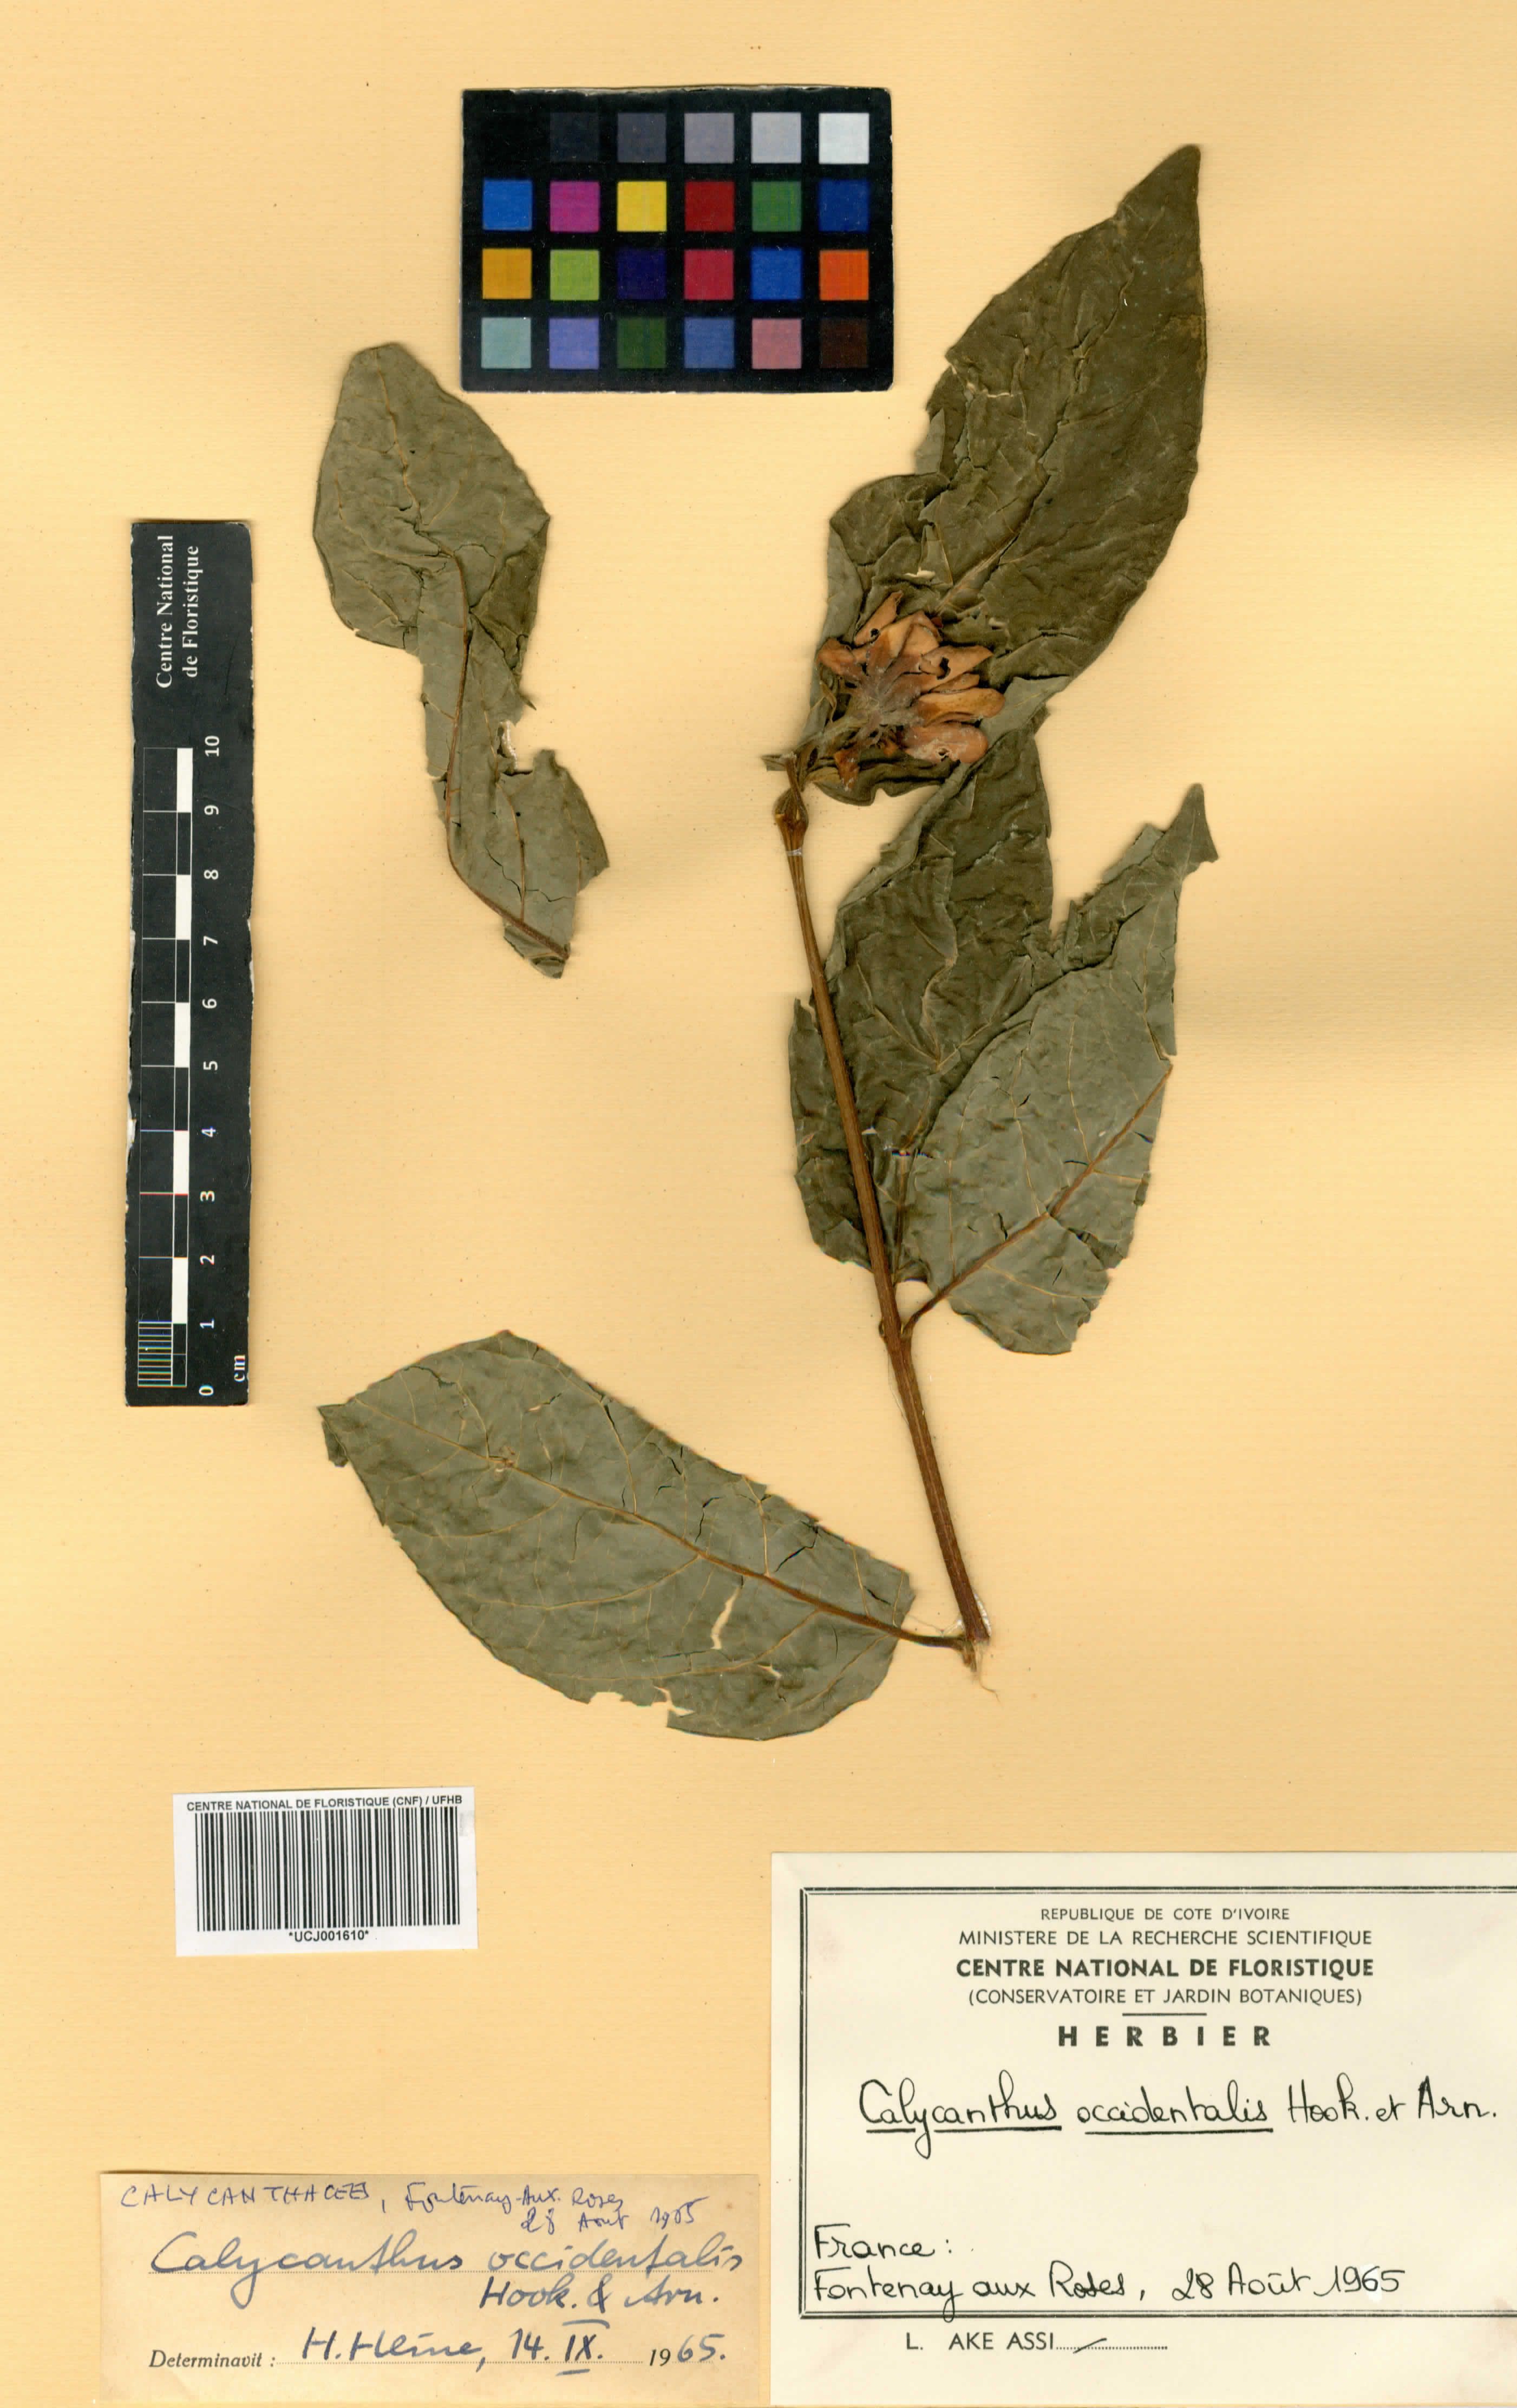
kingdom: Plantae
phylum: Tracheophyta
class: Magnoliopsida
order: Laurales
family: Calycanthaceae
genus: Calycanthus
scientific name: Calycanthus occidentalis
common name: California spicebush
